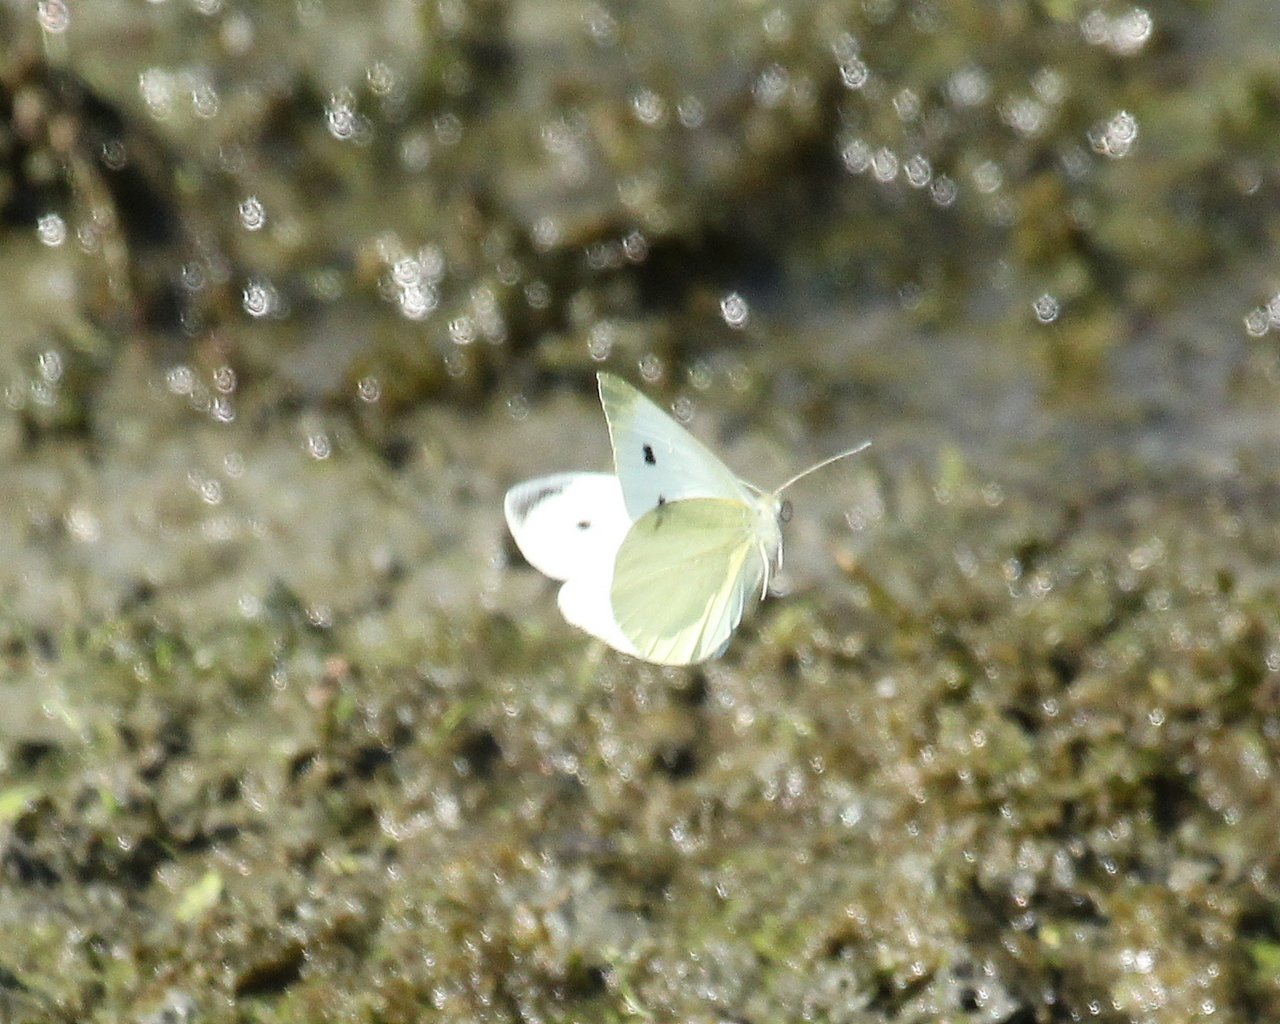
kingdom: Animalia
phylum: Arthropoda
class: Insecta
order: Lepidoptera
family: Pieridae
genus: Pieris
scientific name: Pieris rapae
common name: Cabbage White
